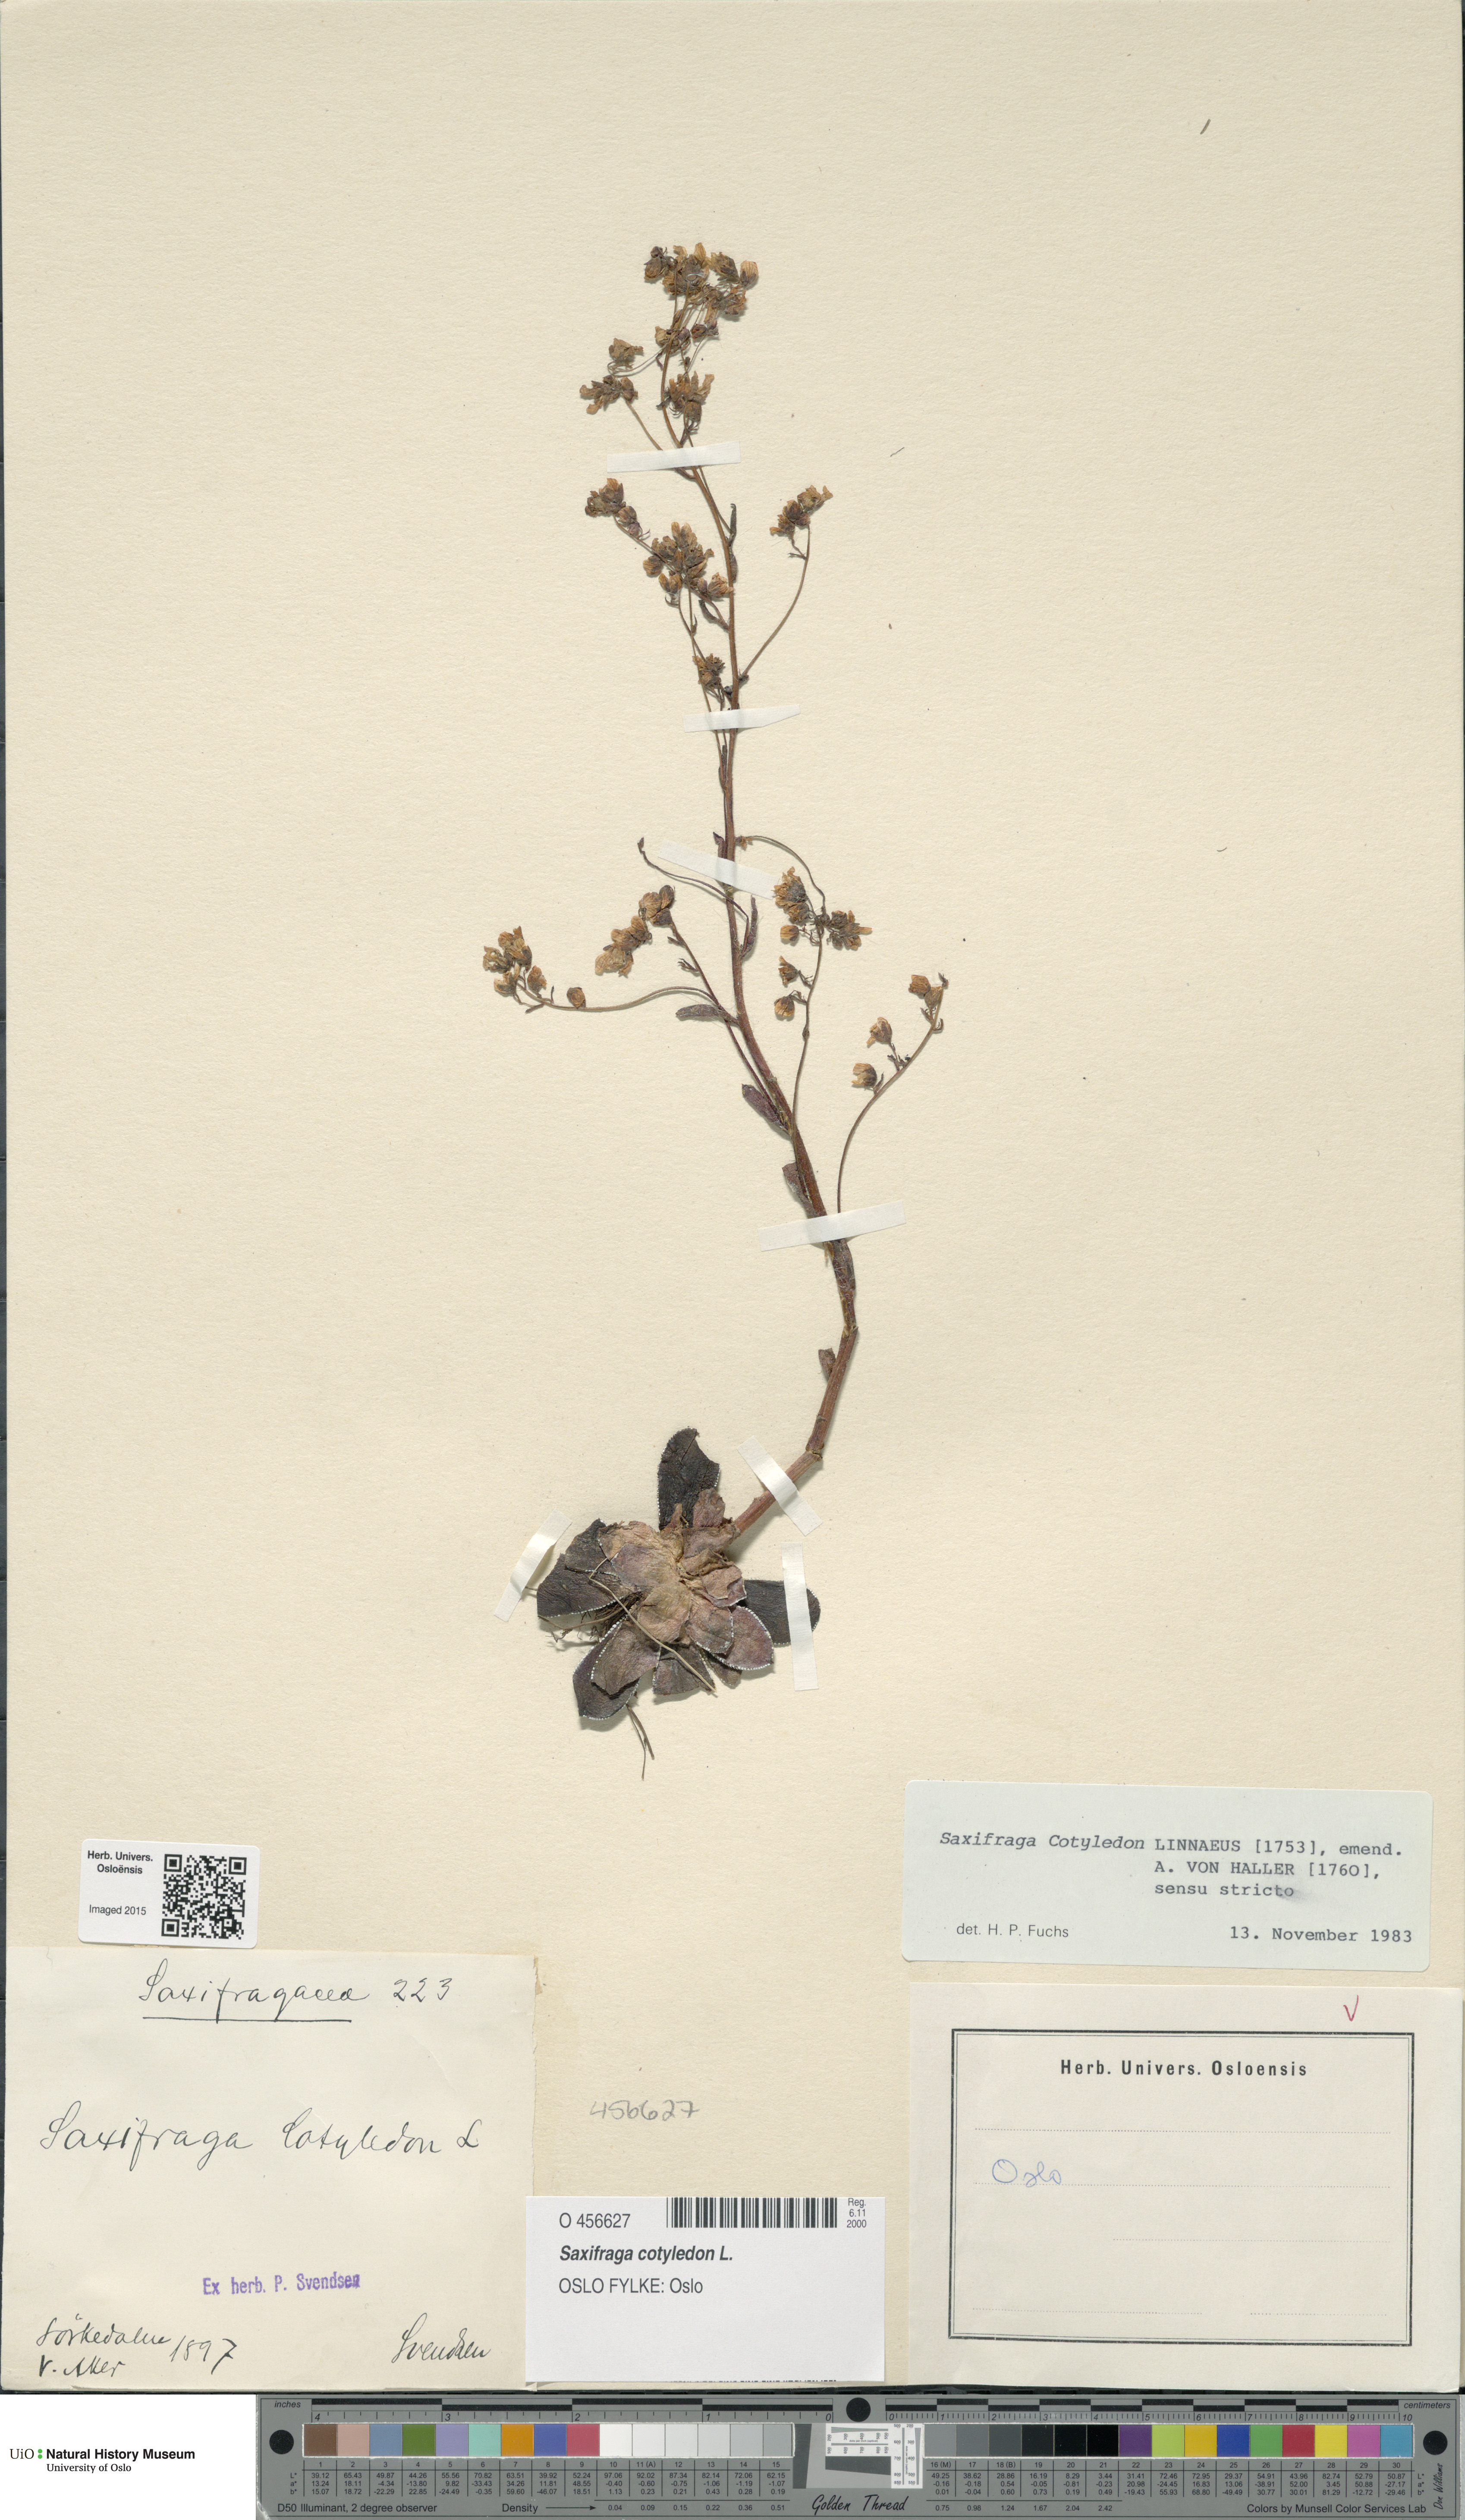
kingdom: Plantae
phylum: Tracheophyta
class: Magnoliopsida
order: Saxifragales
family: Saxifragaceae
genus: Saxifraga
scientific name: Saxifraga cotyledon
